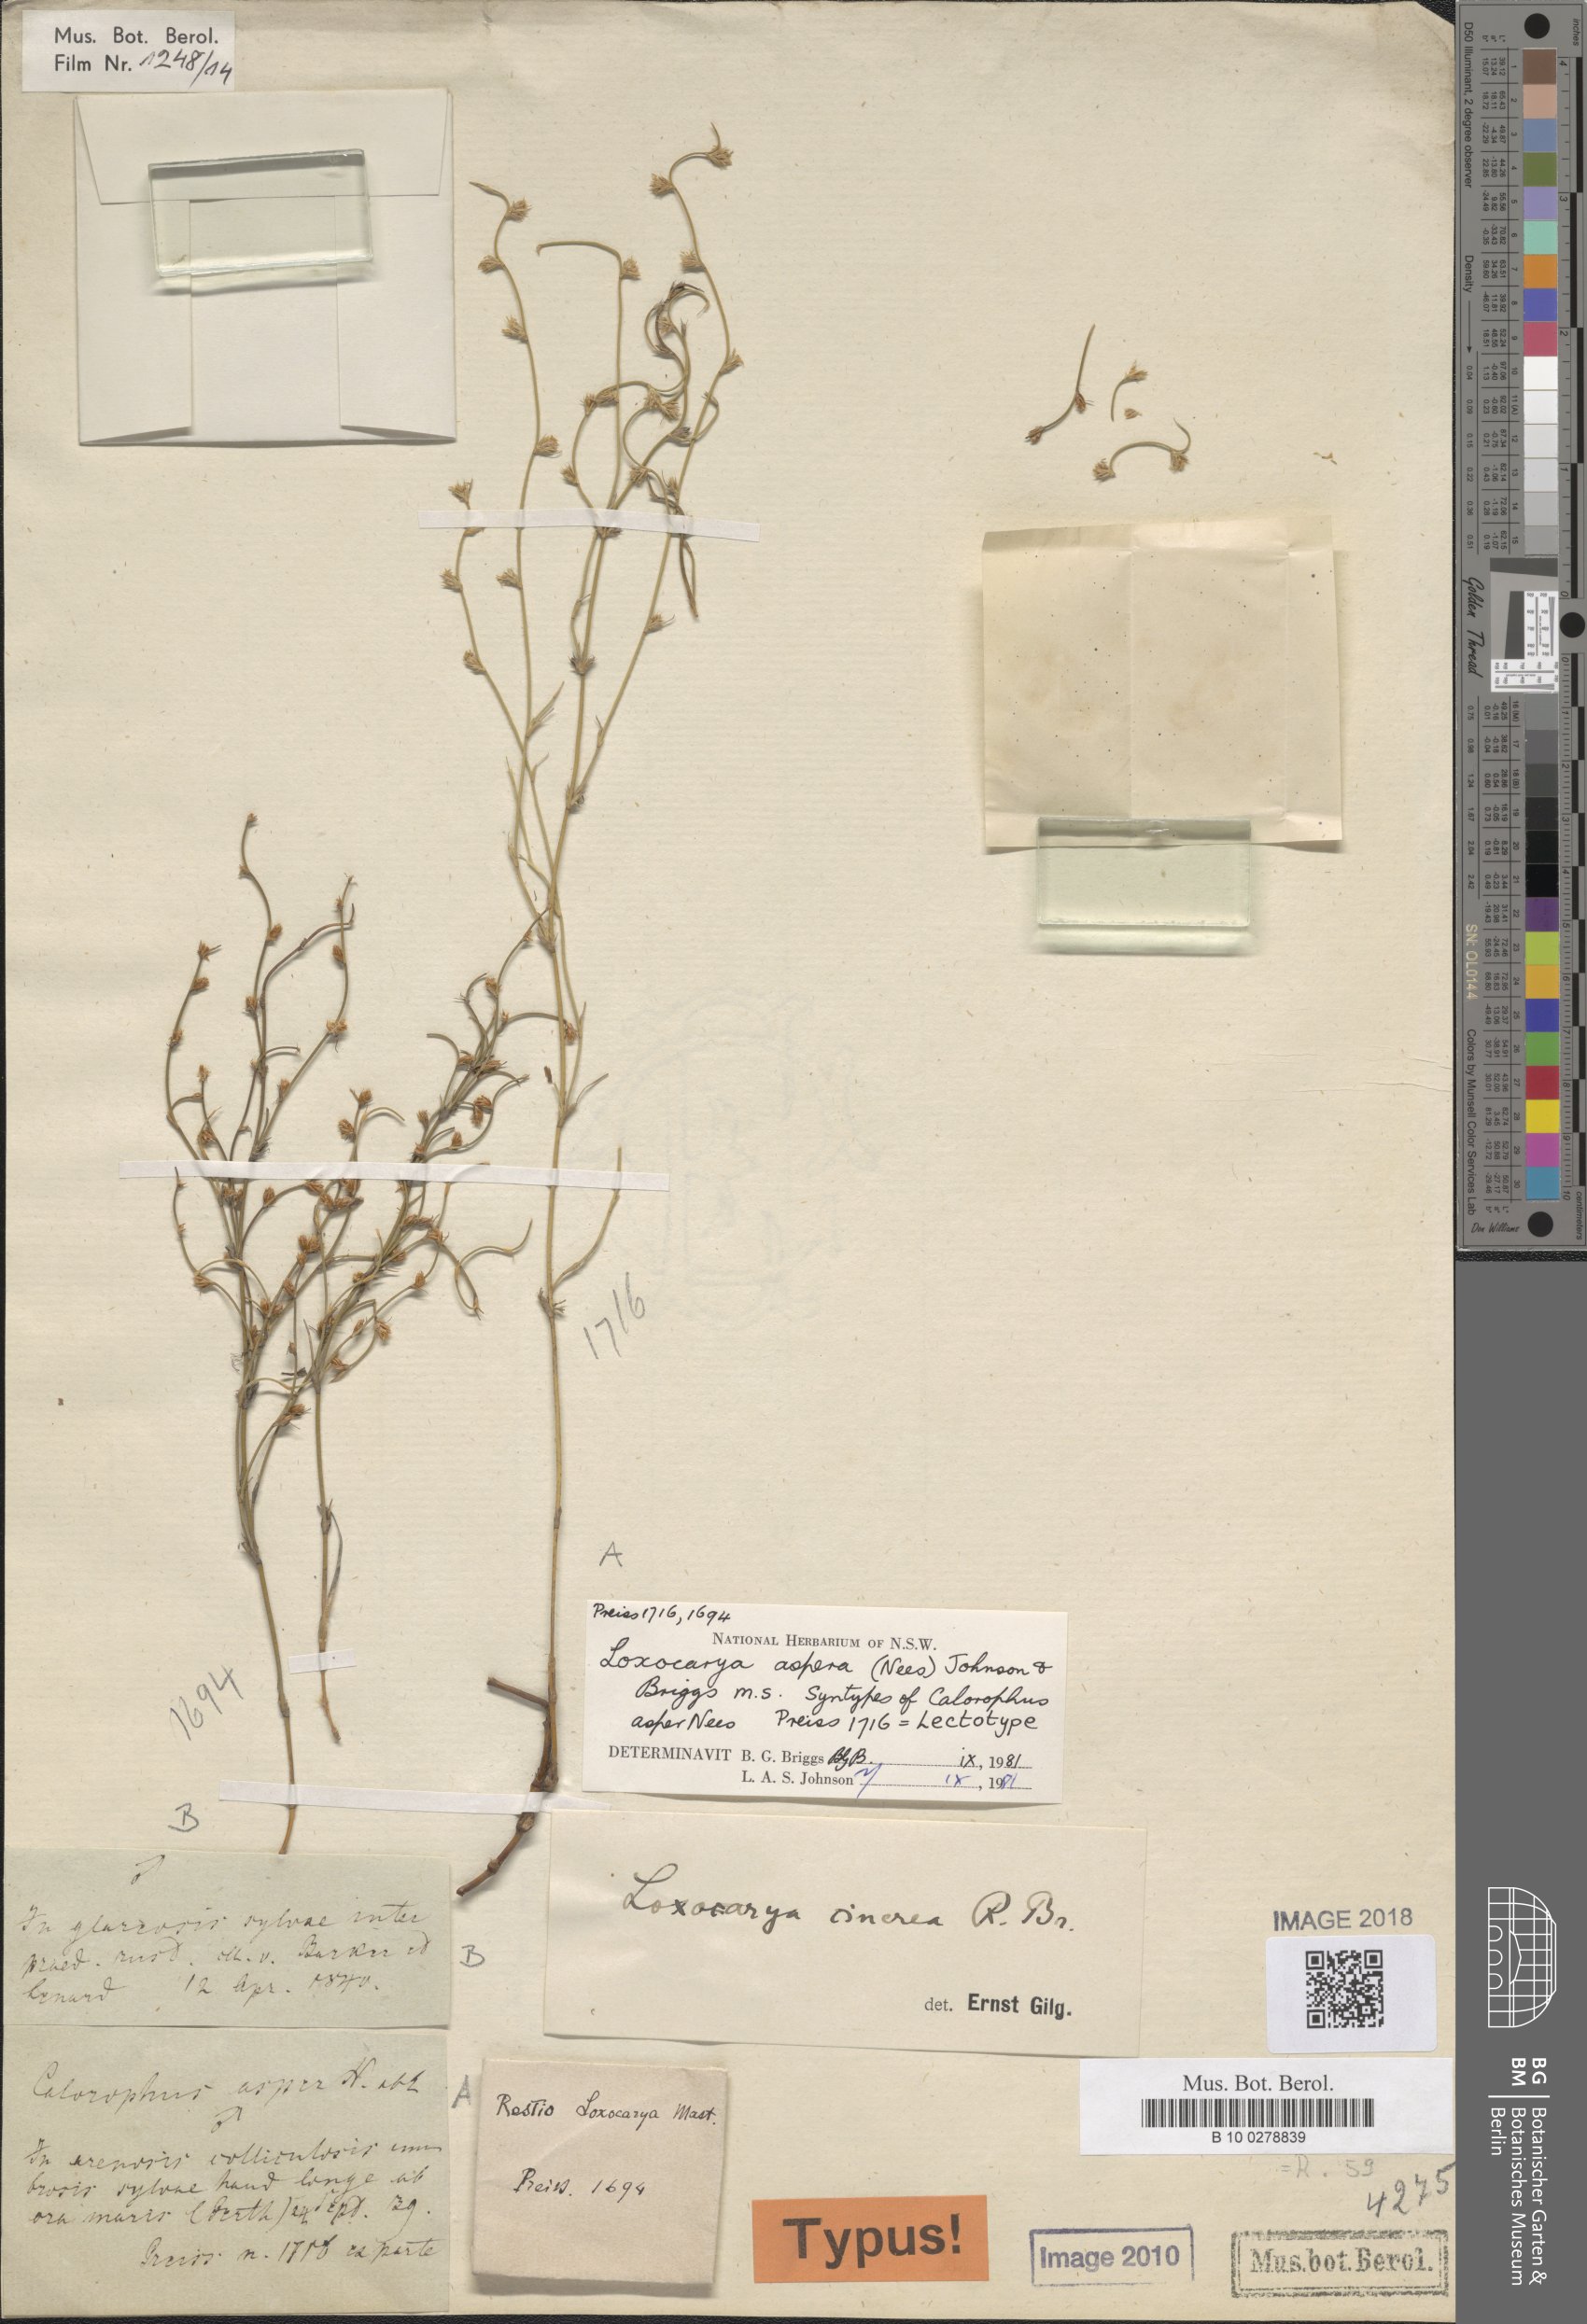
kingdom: Plantae
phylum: Tracheophyta
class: Liliopsida
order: Poales
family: Restionaceae
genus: Loxocarya
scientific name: Loxocarya
